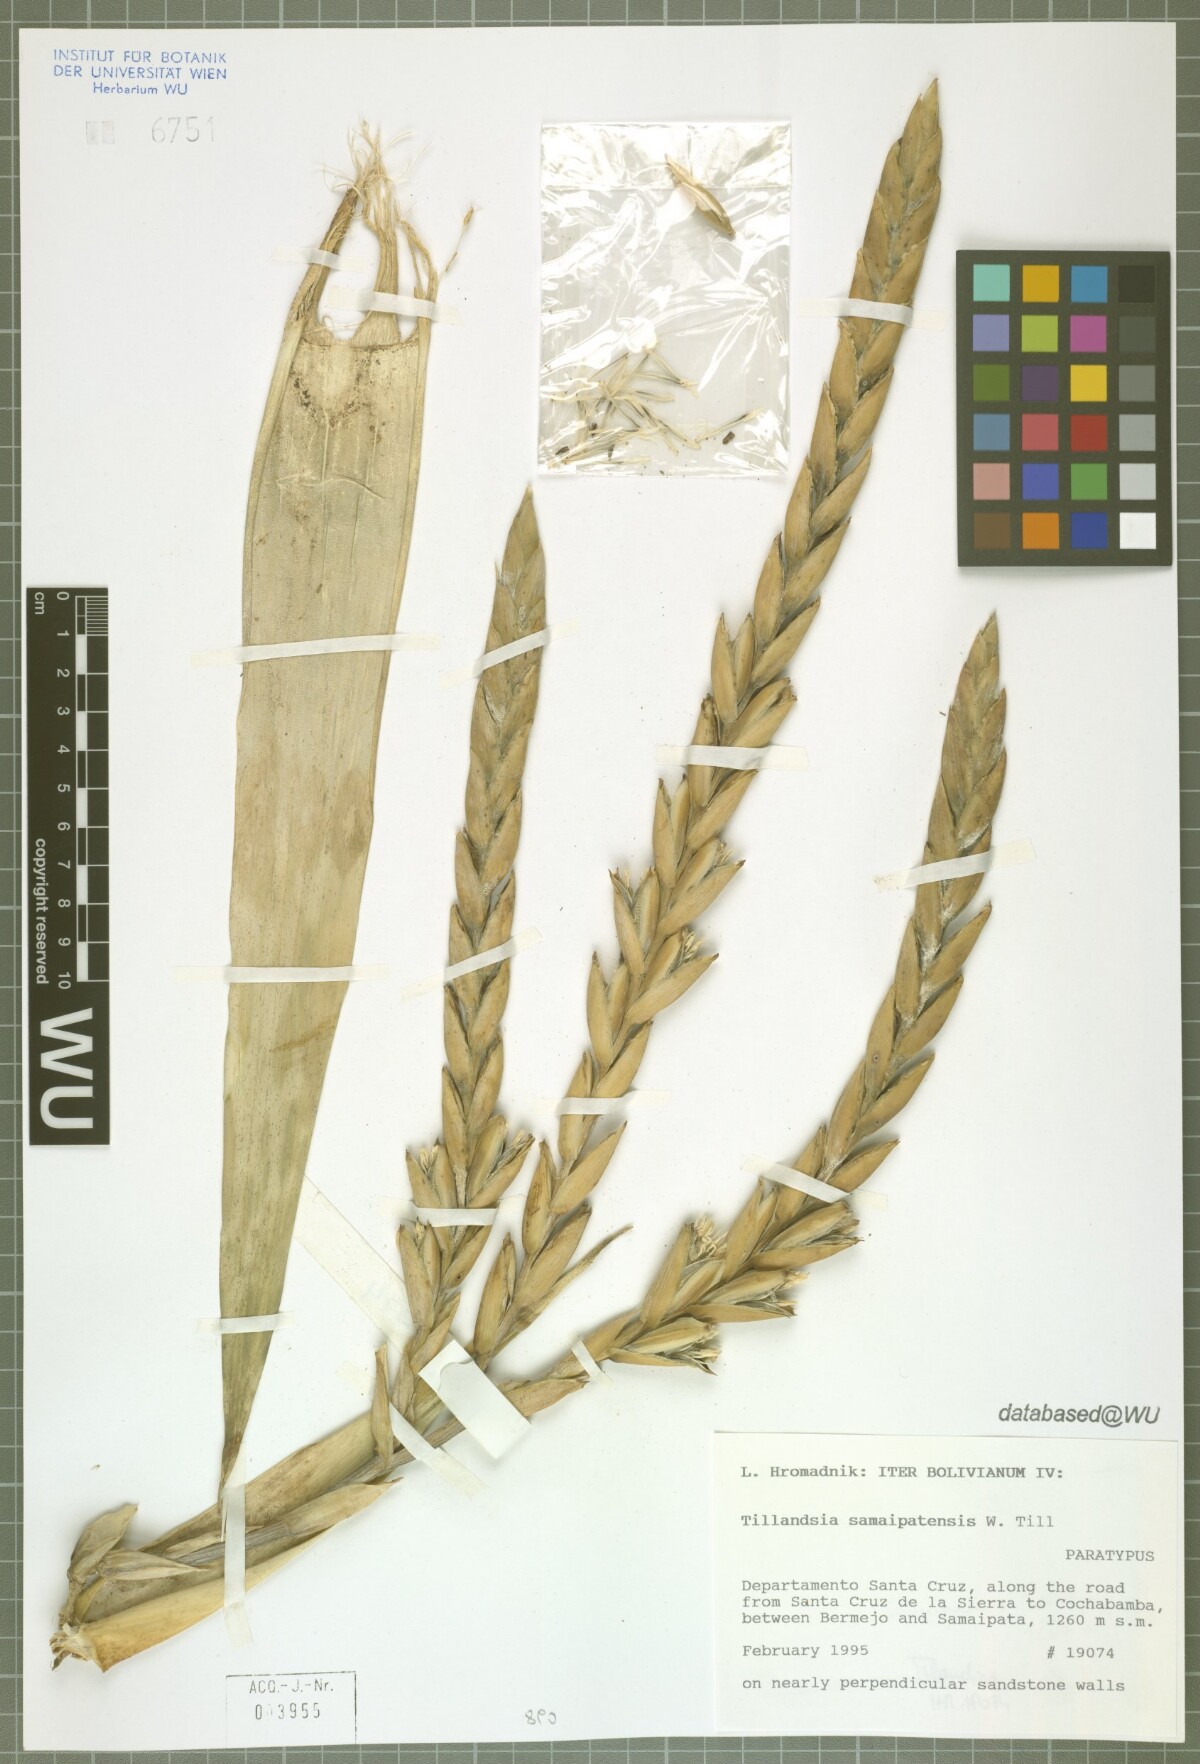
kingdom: Plantae
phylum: Tracheophyta
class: Liliopsida
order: Poales
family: Bromeliaceae
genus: Tillandsia
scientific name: Tillandsia samaipatensis
